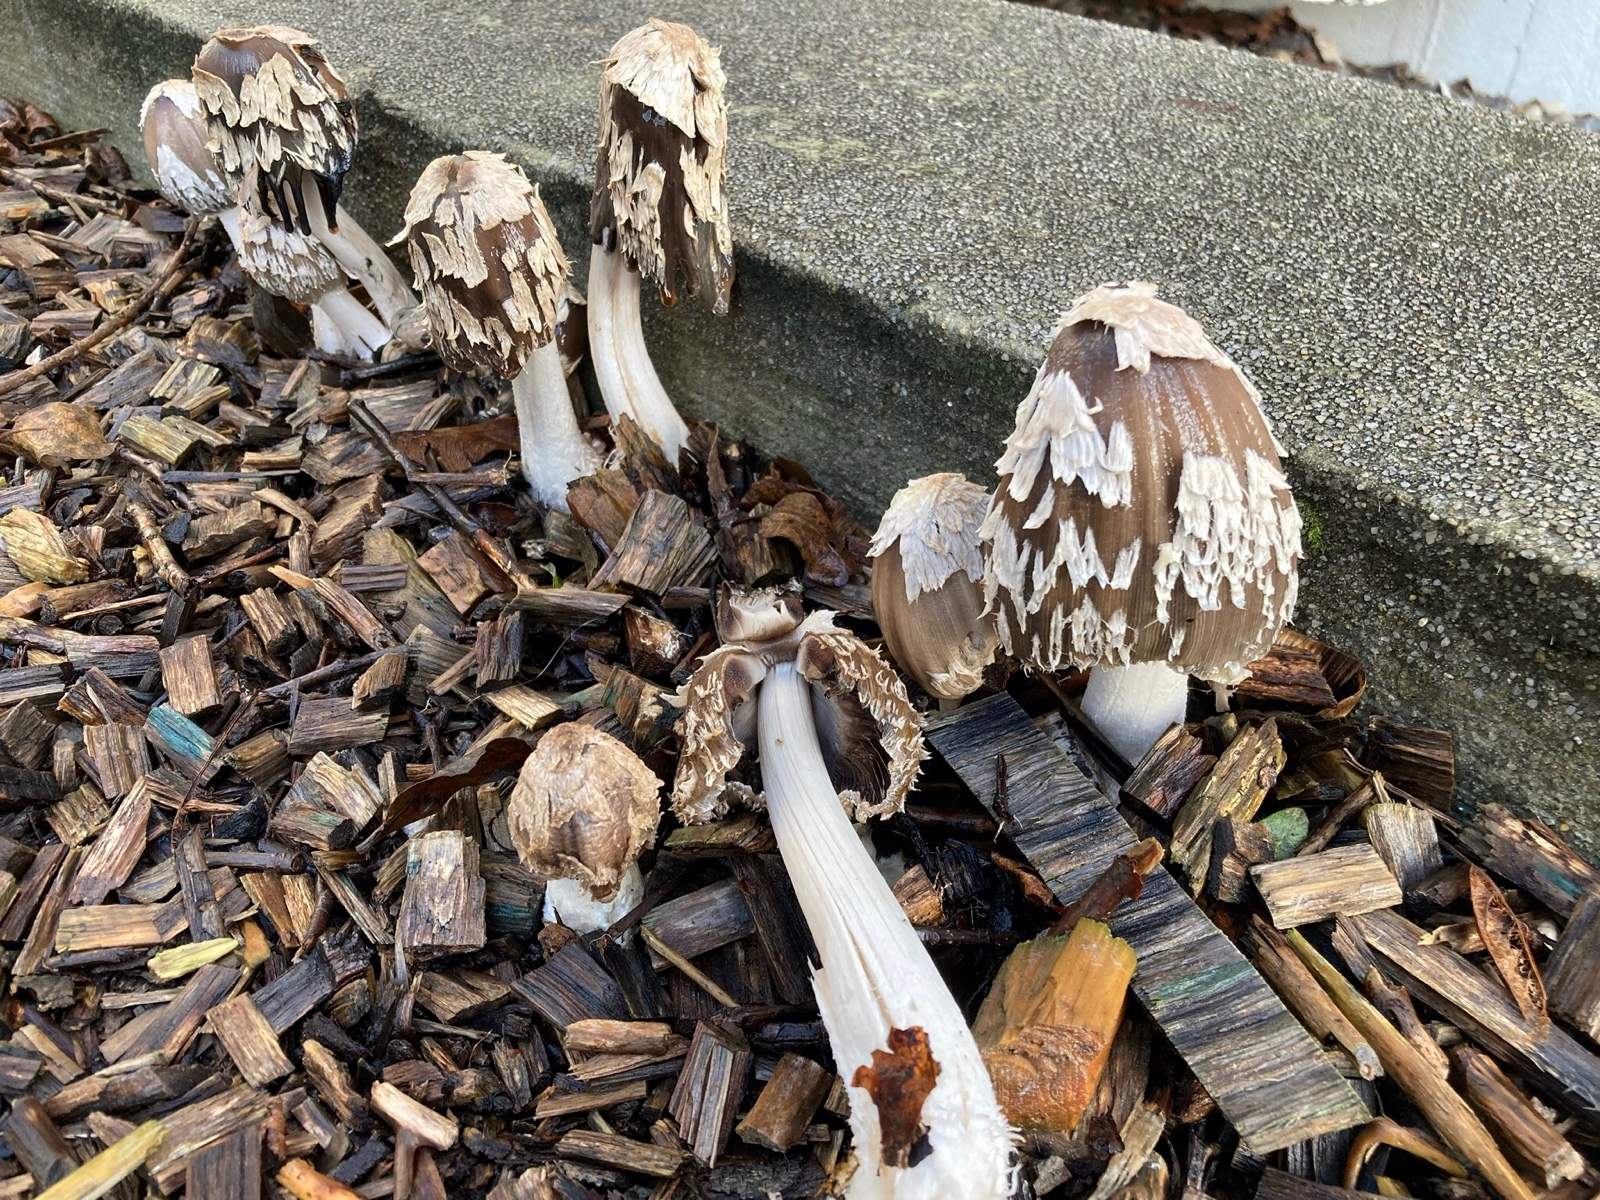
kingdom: Fungi
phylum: Basidiomycota
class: Agaricomycetes
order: Agaricales
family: Psathyrellaceae
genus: Coprinopsis
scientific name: Coprinopsis picacea
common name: skade-blækhat
